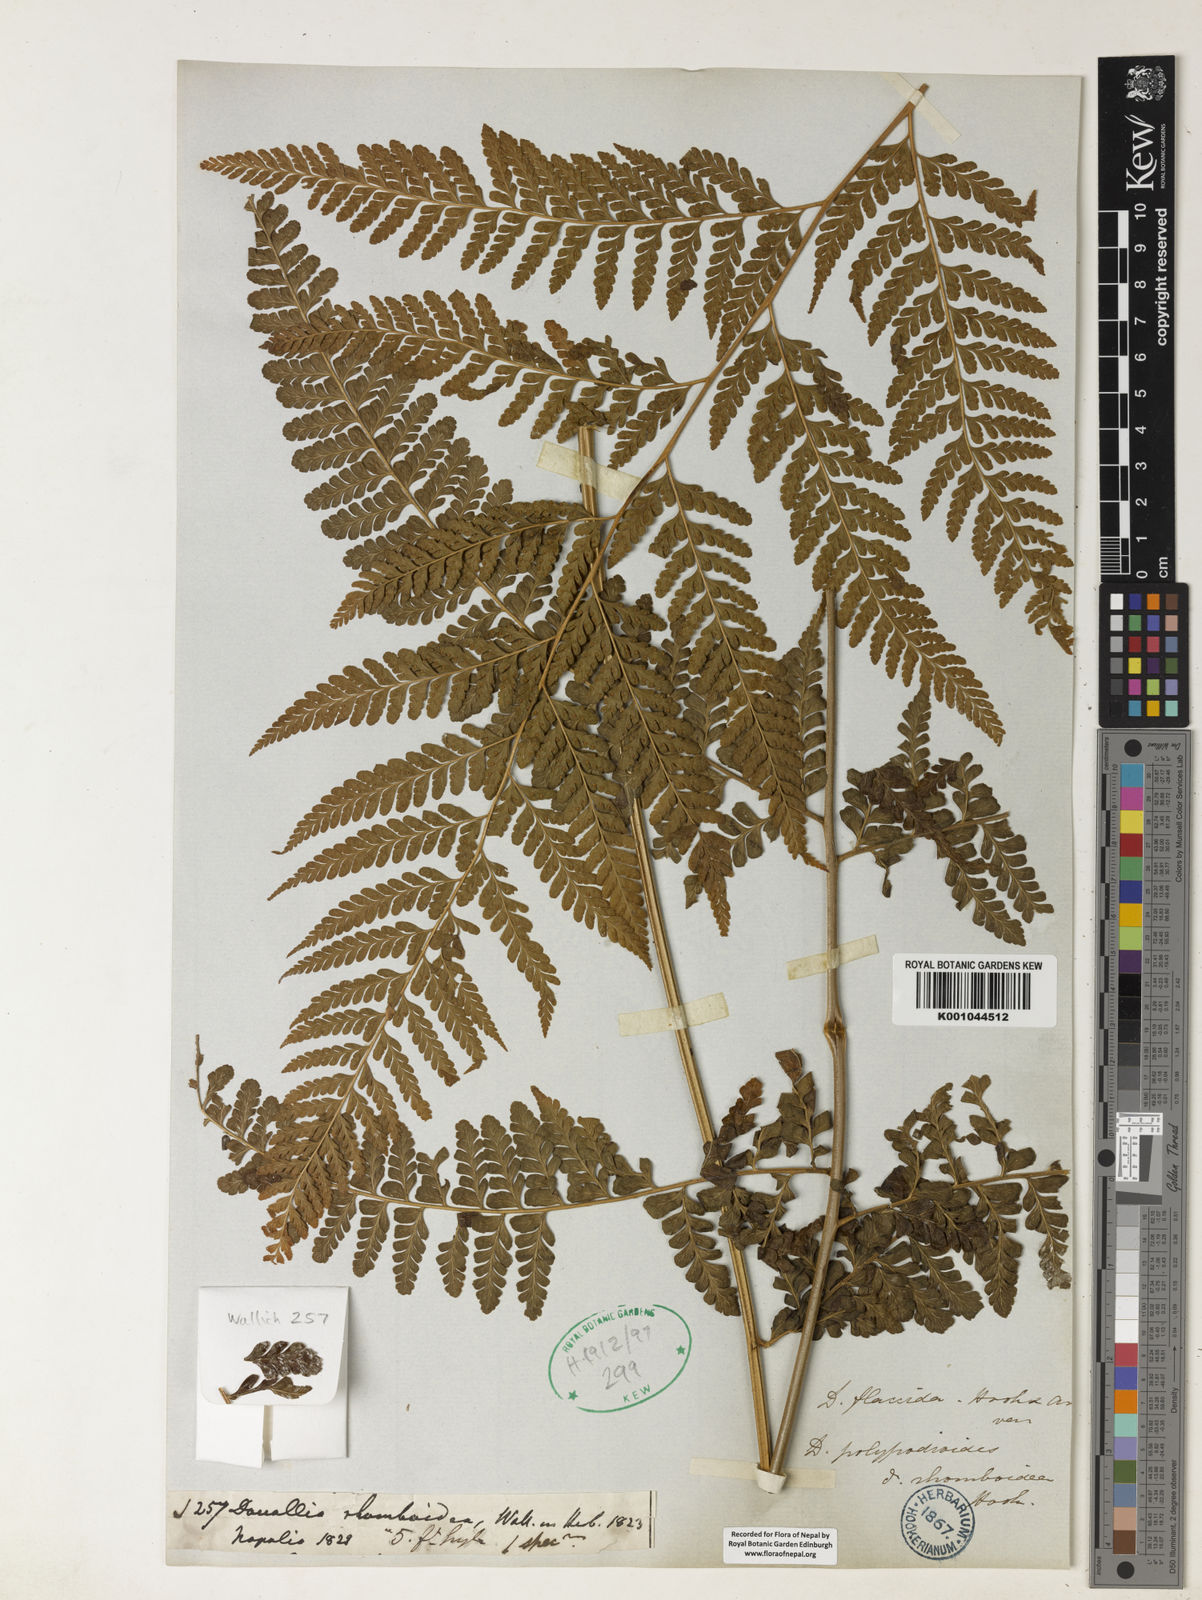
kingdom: Plantae
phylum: Tracheophyta
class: Polypodiopsida
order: Polypodiales
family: Dennstaedtiaceae
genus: Microlepia
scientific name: Microlepia pilosiuscula
